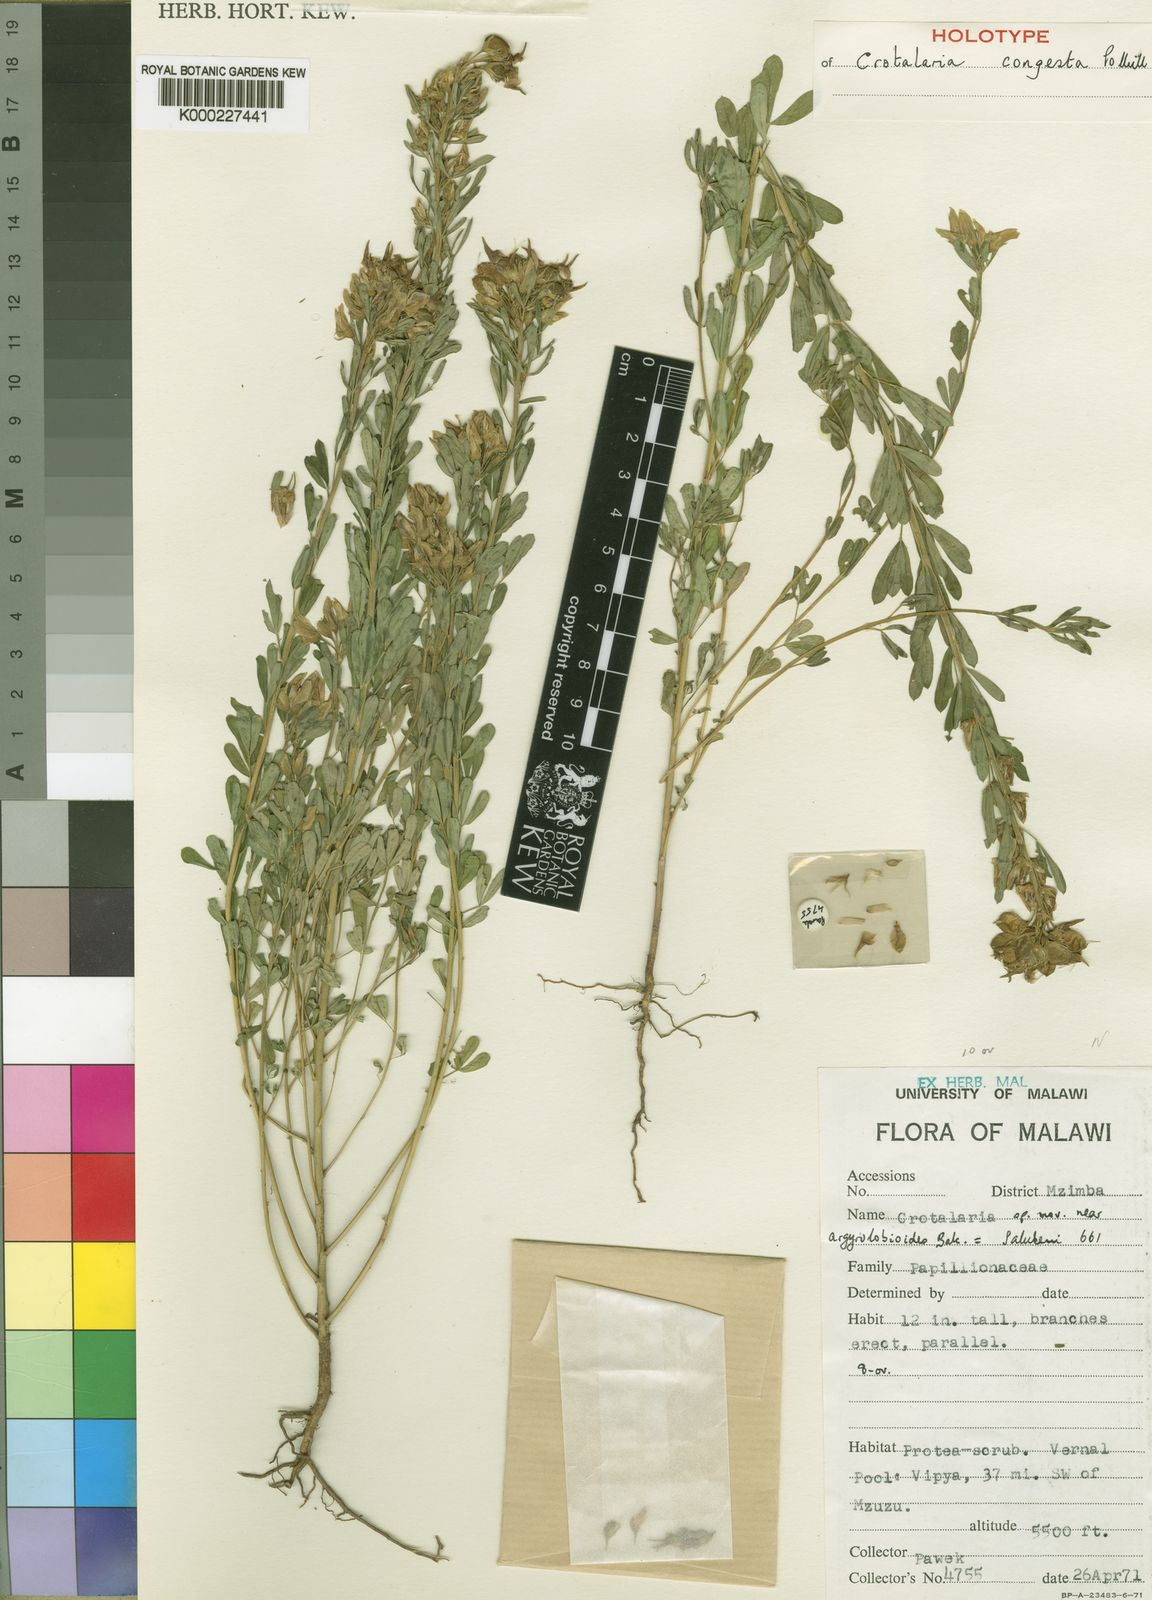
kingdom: Plantae
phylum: Tracheophyta
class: Magnoliopsida
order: Fabales
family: Fabaceae
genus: Crotalaria
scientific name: Crotalaria pseudotenuirama
